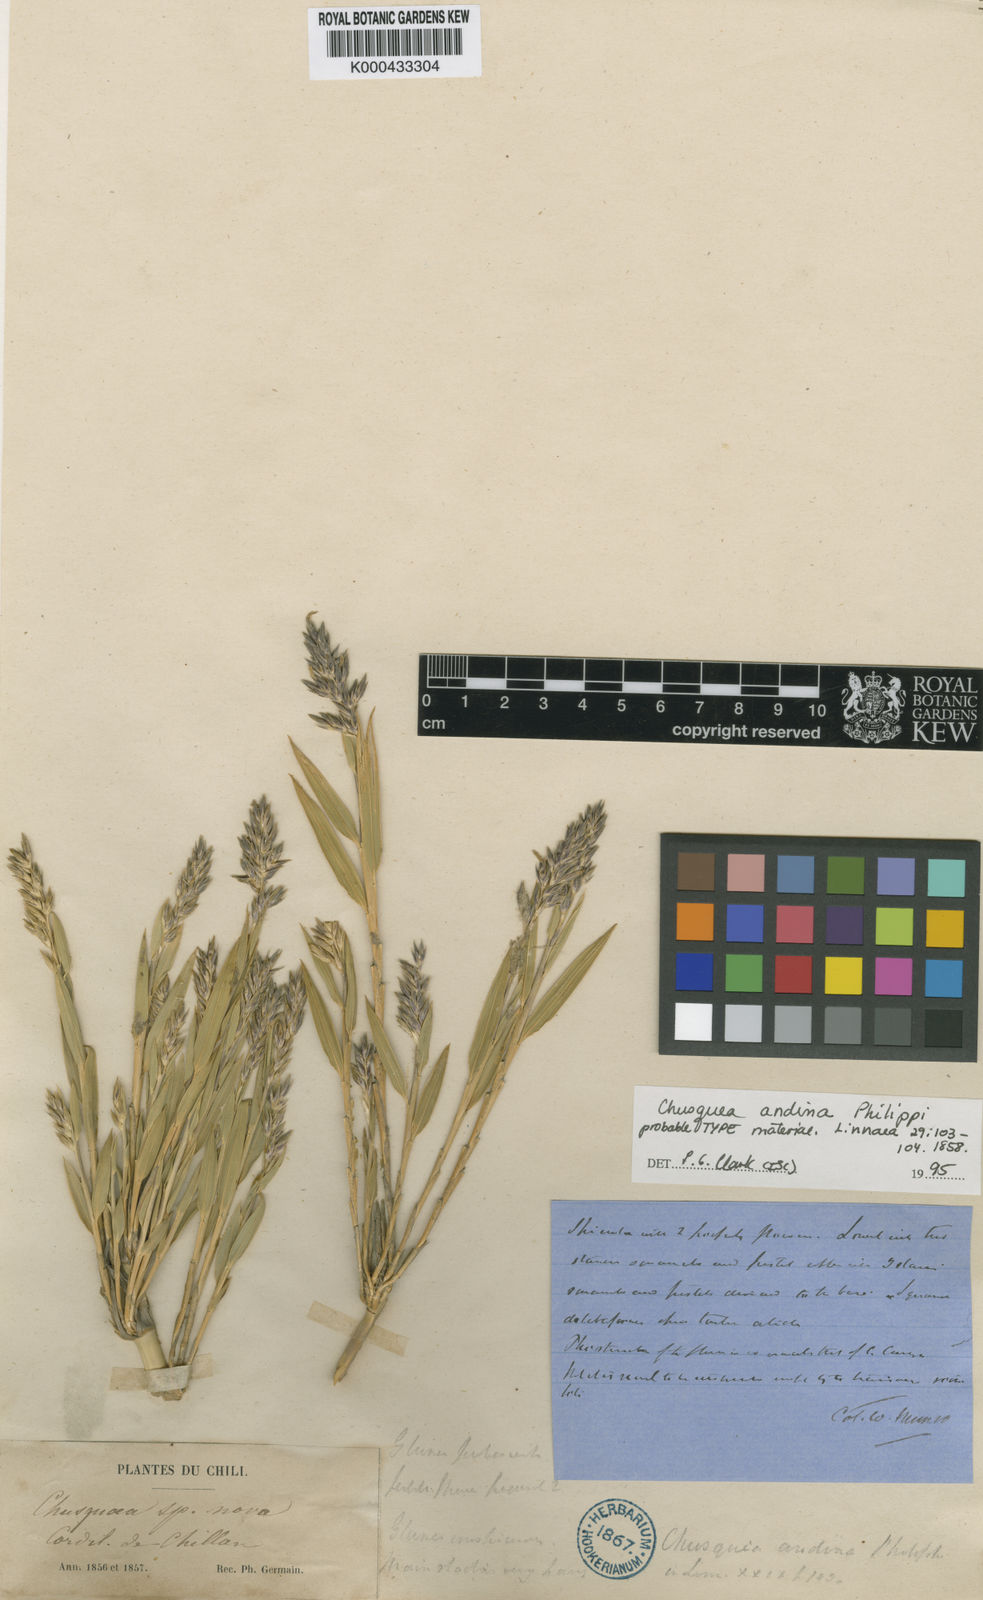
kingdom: Plantae
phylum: Tracheophyta
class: Liliopsida
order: Poales
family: Poaceae
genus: Chusquea
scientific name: Chusquea culeou
